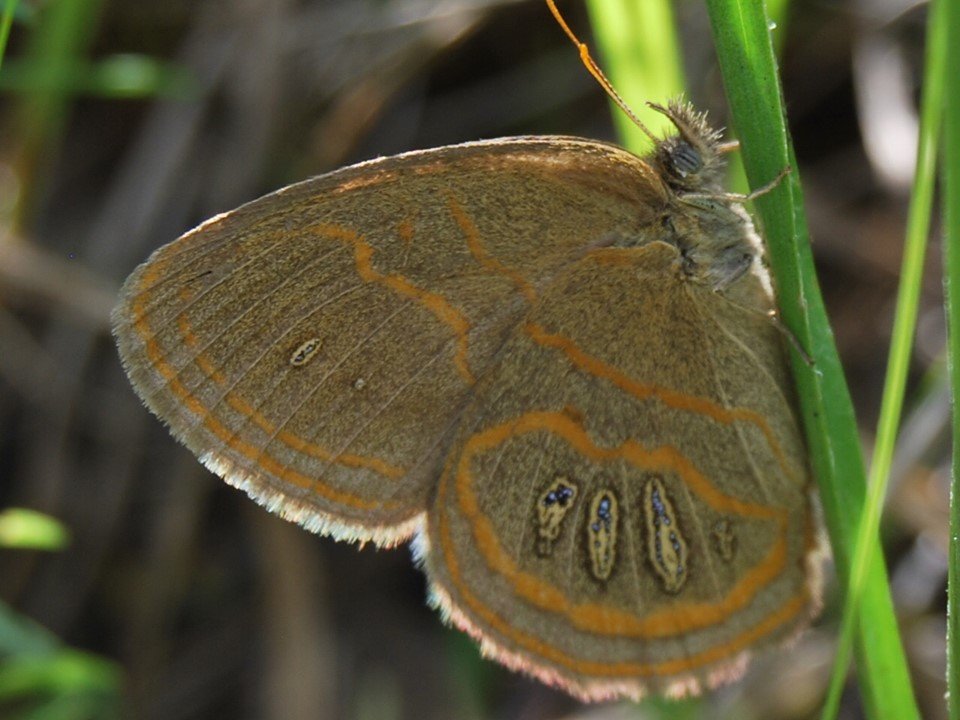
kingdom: Animalia
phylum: Arthropoda
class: Insecta
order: Lepidoptera
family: Nymphalidae
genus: Euptychia
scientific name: Euptychia phocion
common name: Georgia Satyr
